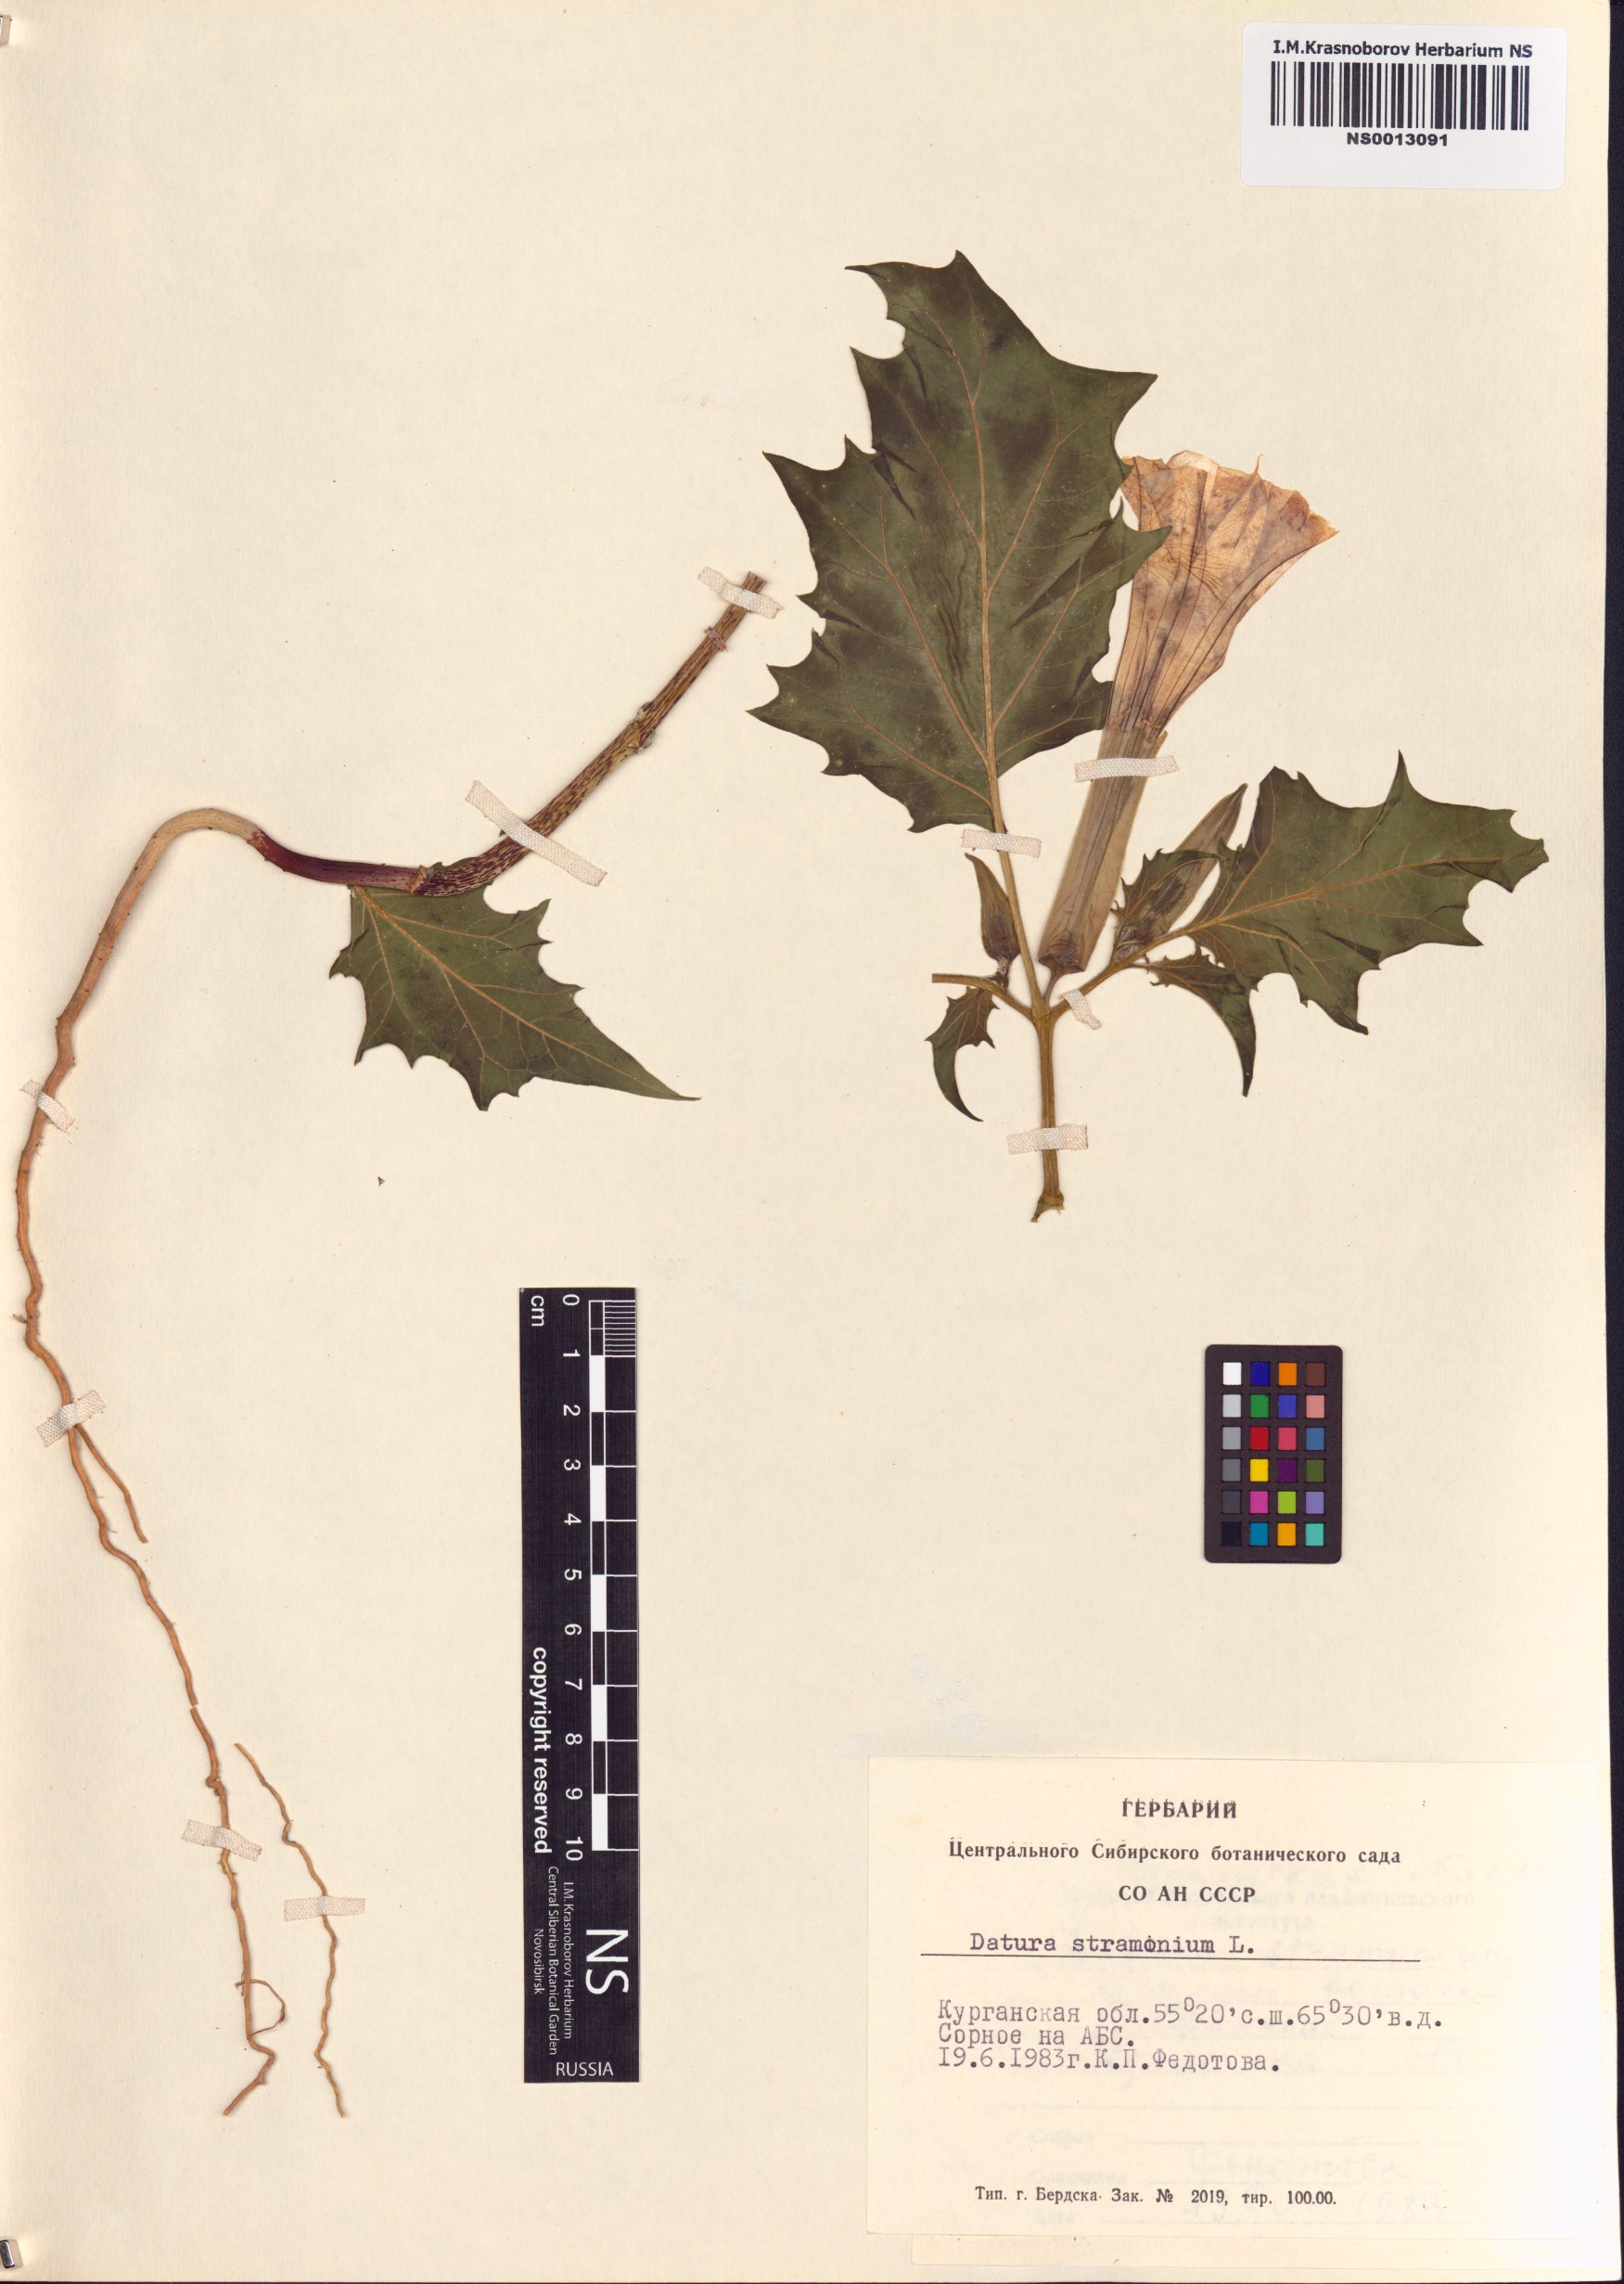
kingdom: Plantae
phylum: Tracheophyta
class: Magnoliopsida
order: Solanales
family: Solanaceae
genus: Datura
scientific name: Datura stramonium
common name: Thorn-apple
